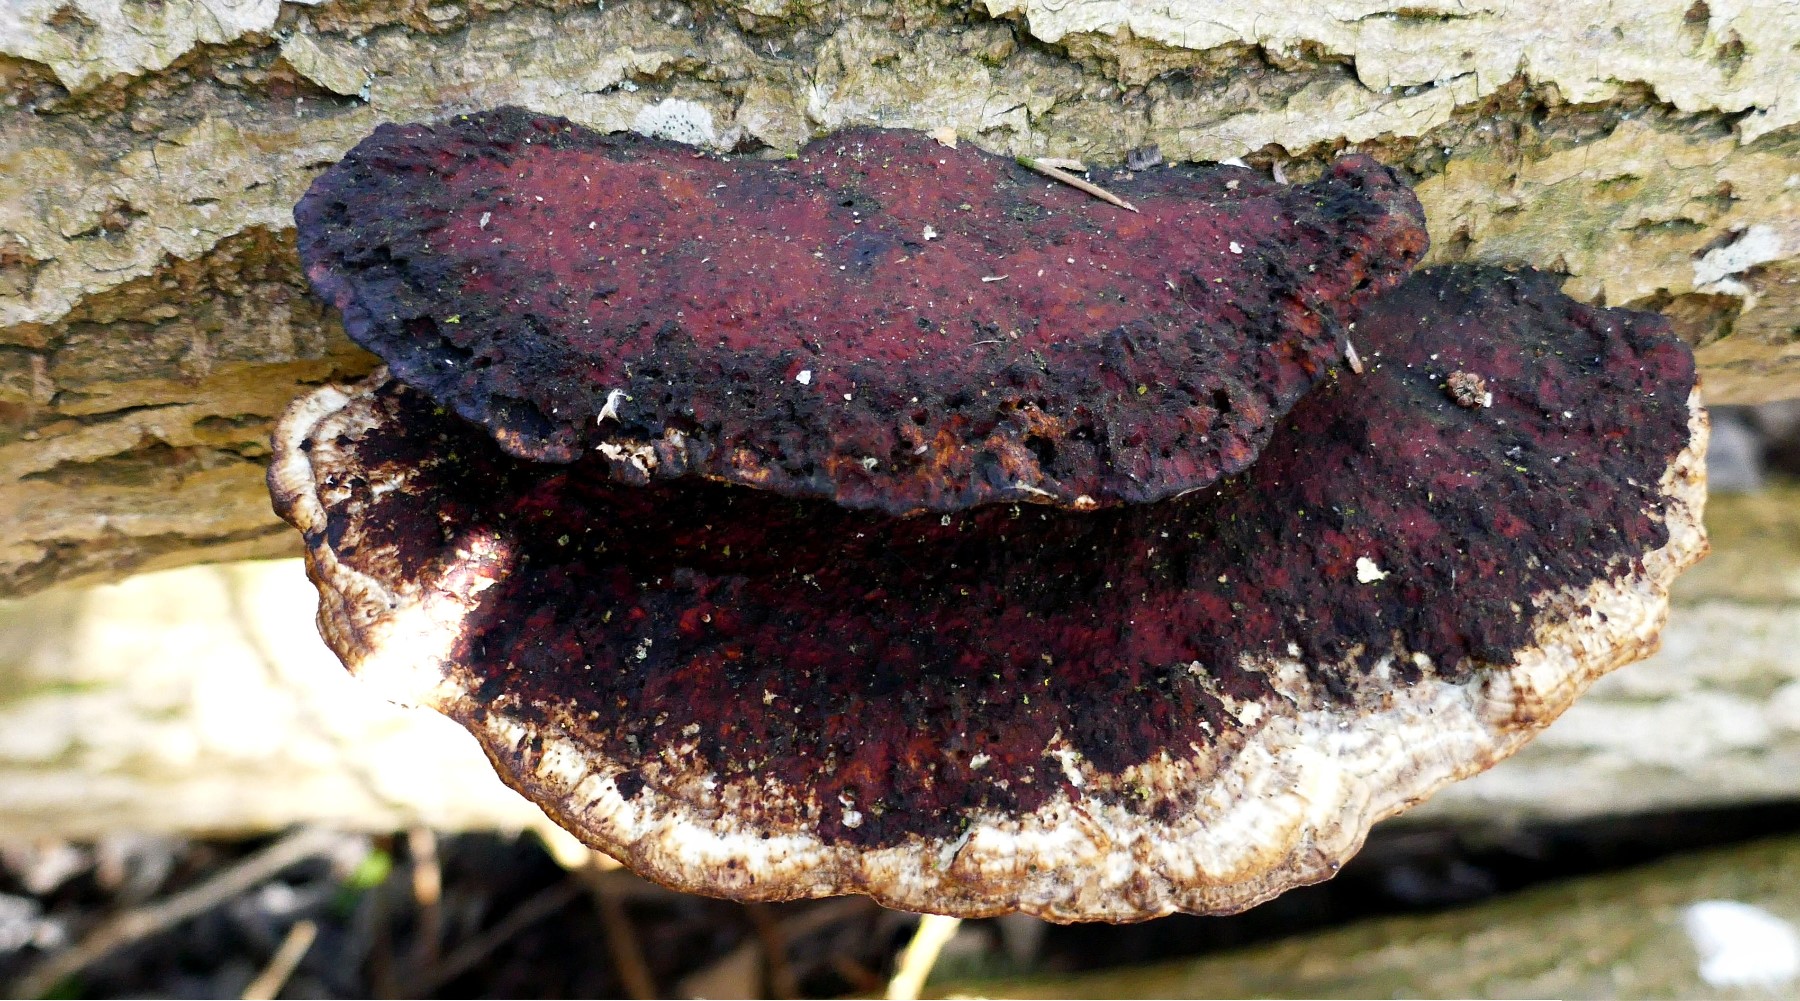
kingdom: Fungi
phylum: Basidiomycota
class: Agaricomycetes
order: Polyporales
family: Polyporaceae
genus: Daedaleopsis
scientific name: Daedaleopsis confragosa
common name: rødmende læderporesvamp
